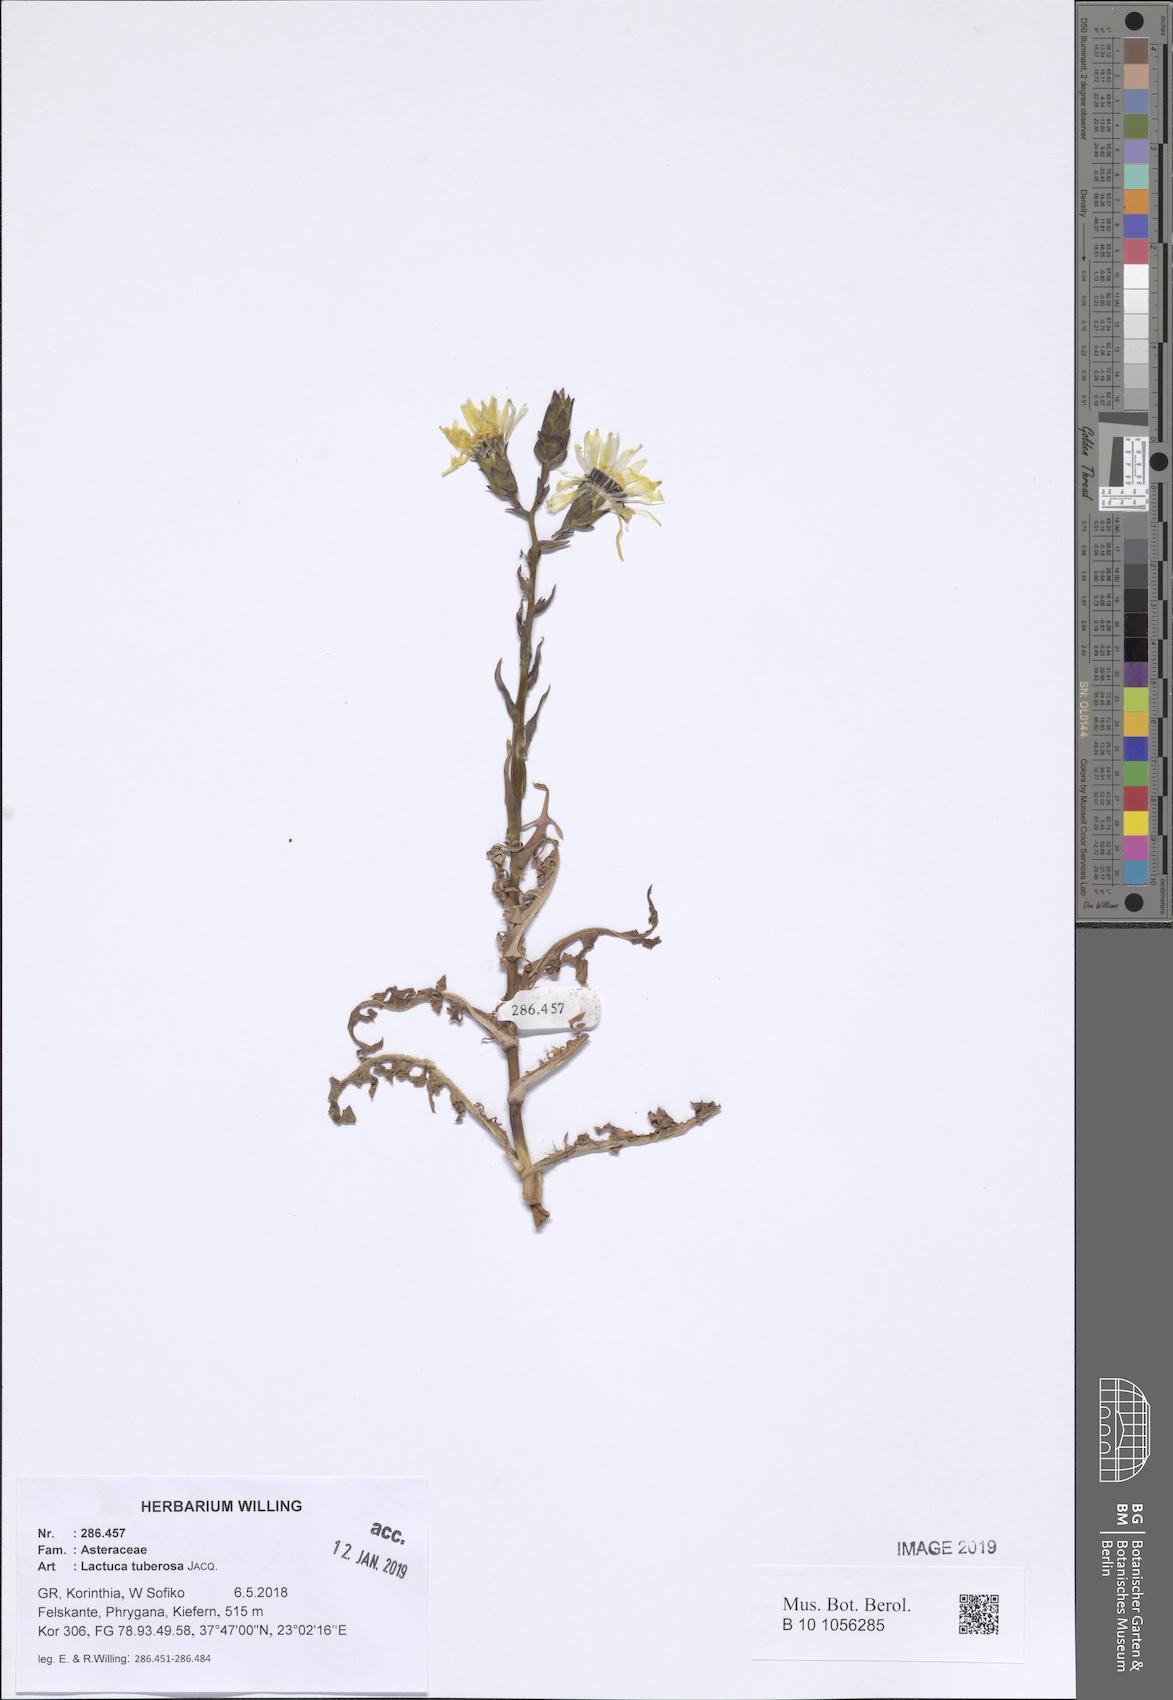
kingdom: Plantae
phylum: Tracheophyta
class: Magnoliopsida
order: Asterales
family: Asteraceae
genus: Lactuca
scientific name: Lactuca tuberosa
